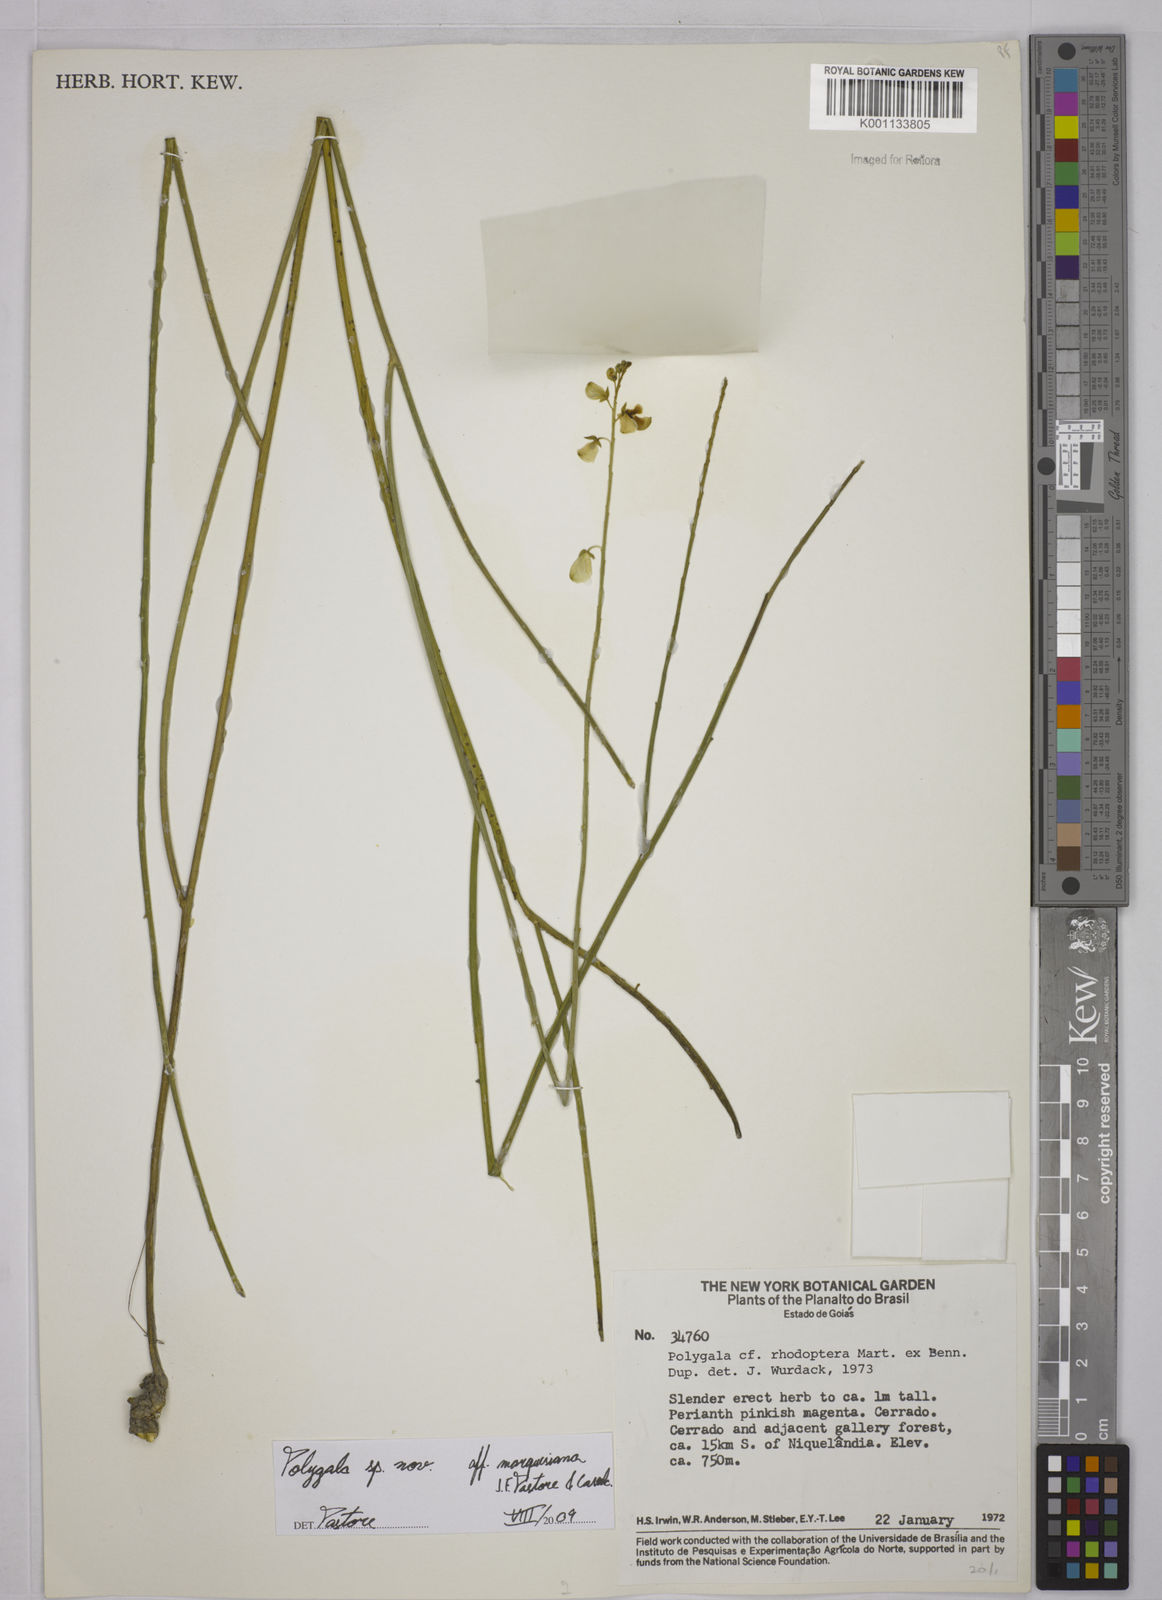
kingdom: Plantae
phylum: Tracheophyta
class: Magnoliopsida
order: Fabales
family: Polygalaceae
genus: Polygala
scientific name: Polygala
